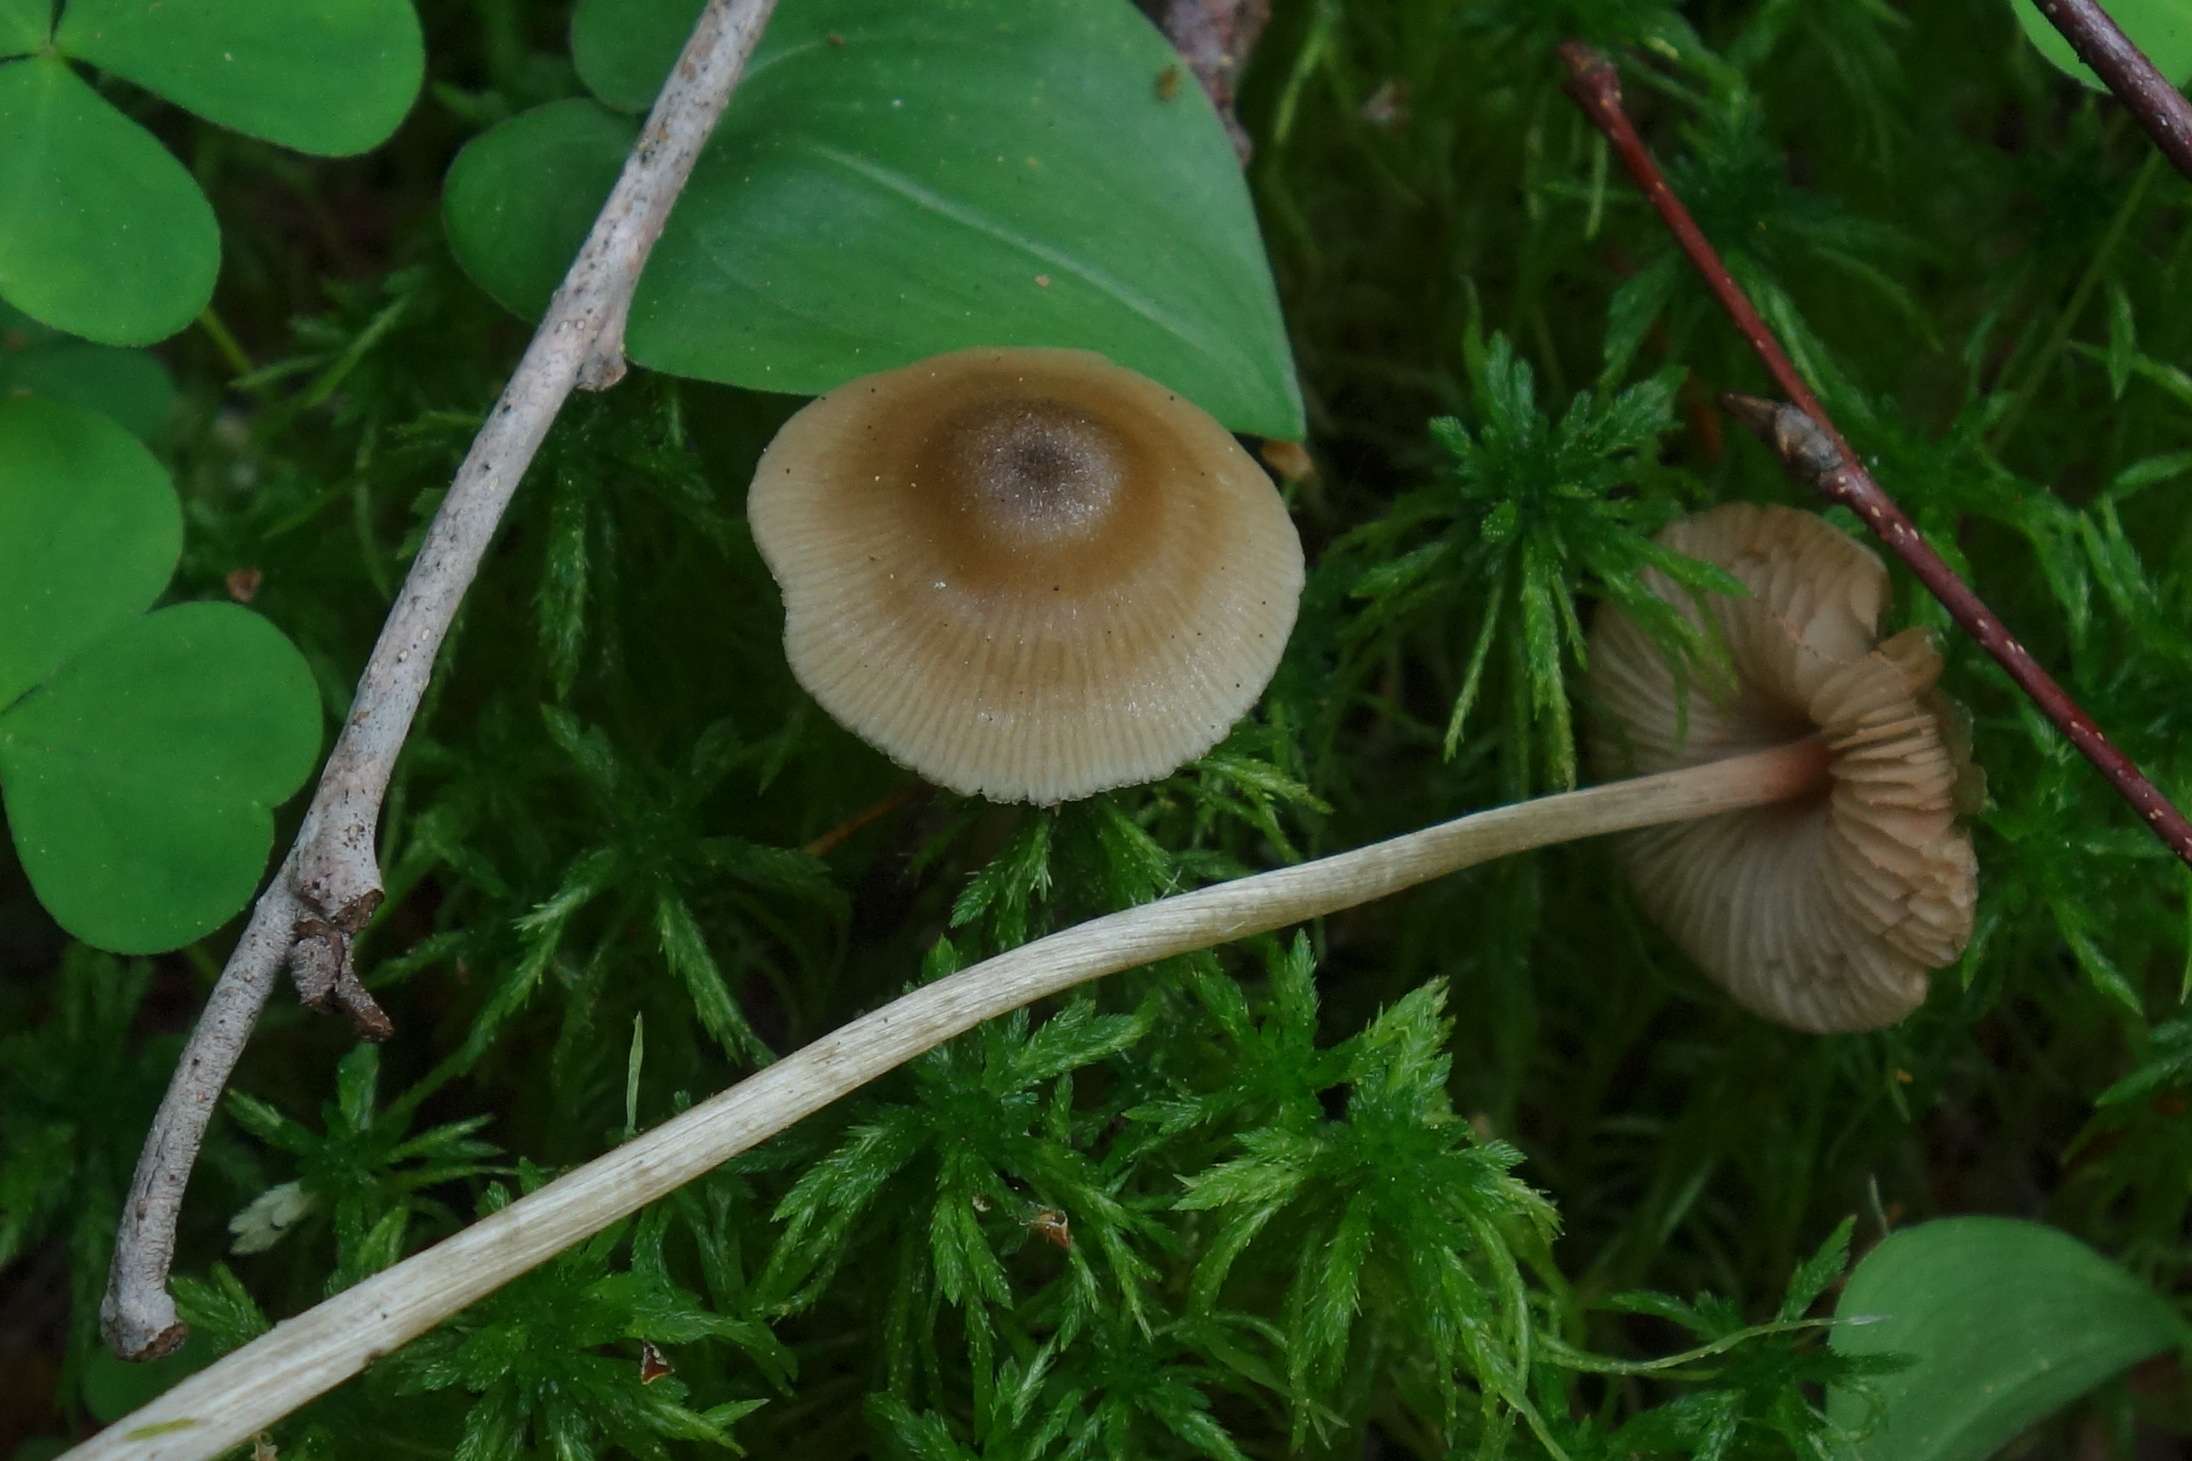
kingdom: Fungi
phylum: Basidiomycota
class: Agaricomycetes
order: Agaricales
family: Entolomataceae
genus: Entoloma
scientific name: Entoloma conferendum
